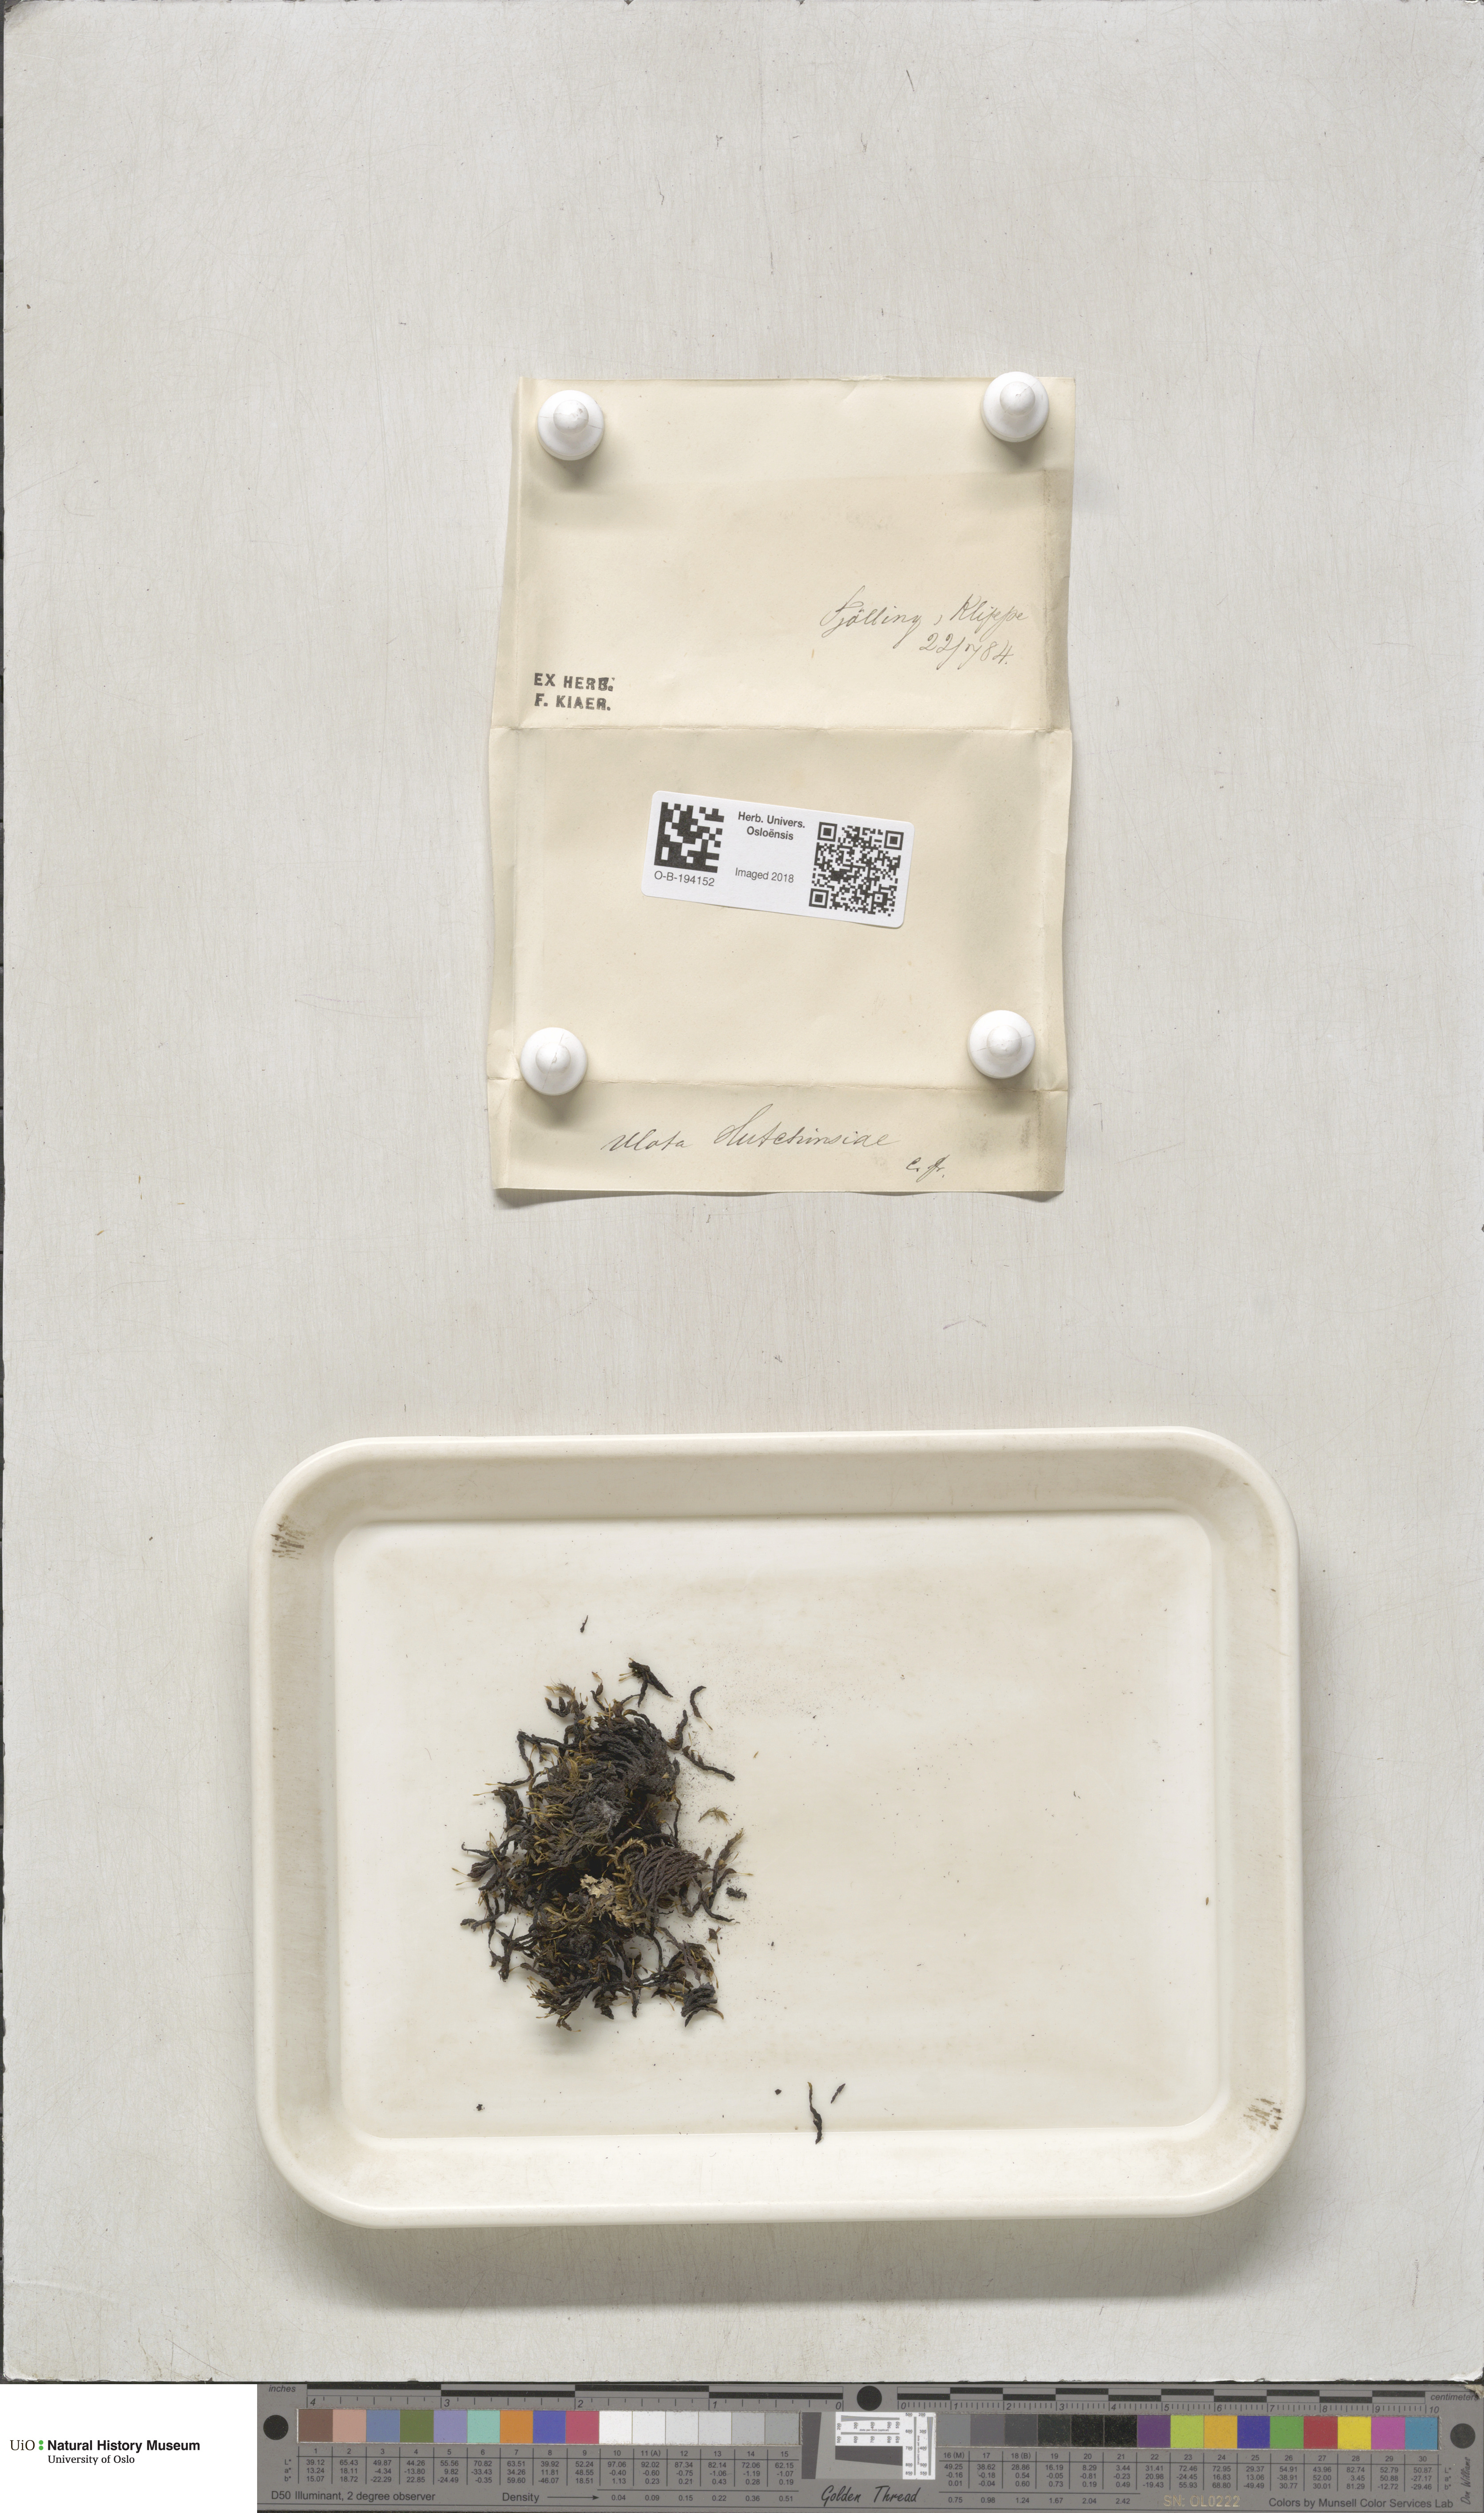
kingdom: Plantae
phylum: Bryophyta
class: Bryopsida
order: Orthotrichales
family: Orthotrichaceae
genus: Ulota
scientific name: Ulota hutchinsiae
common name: Hutchins' pincushion
